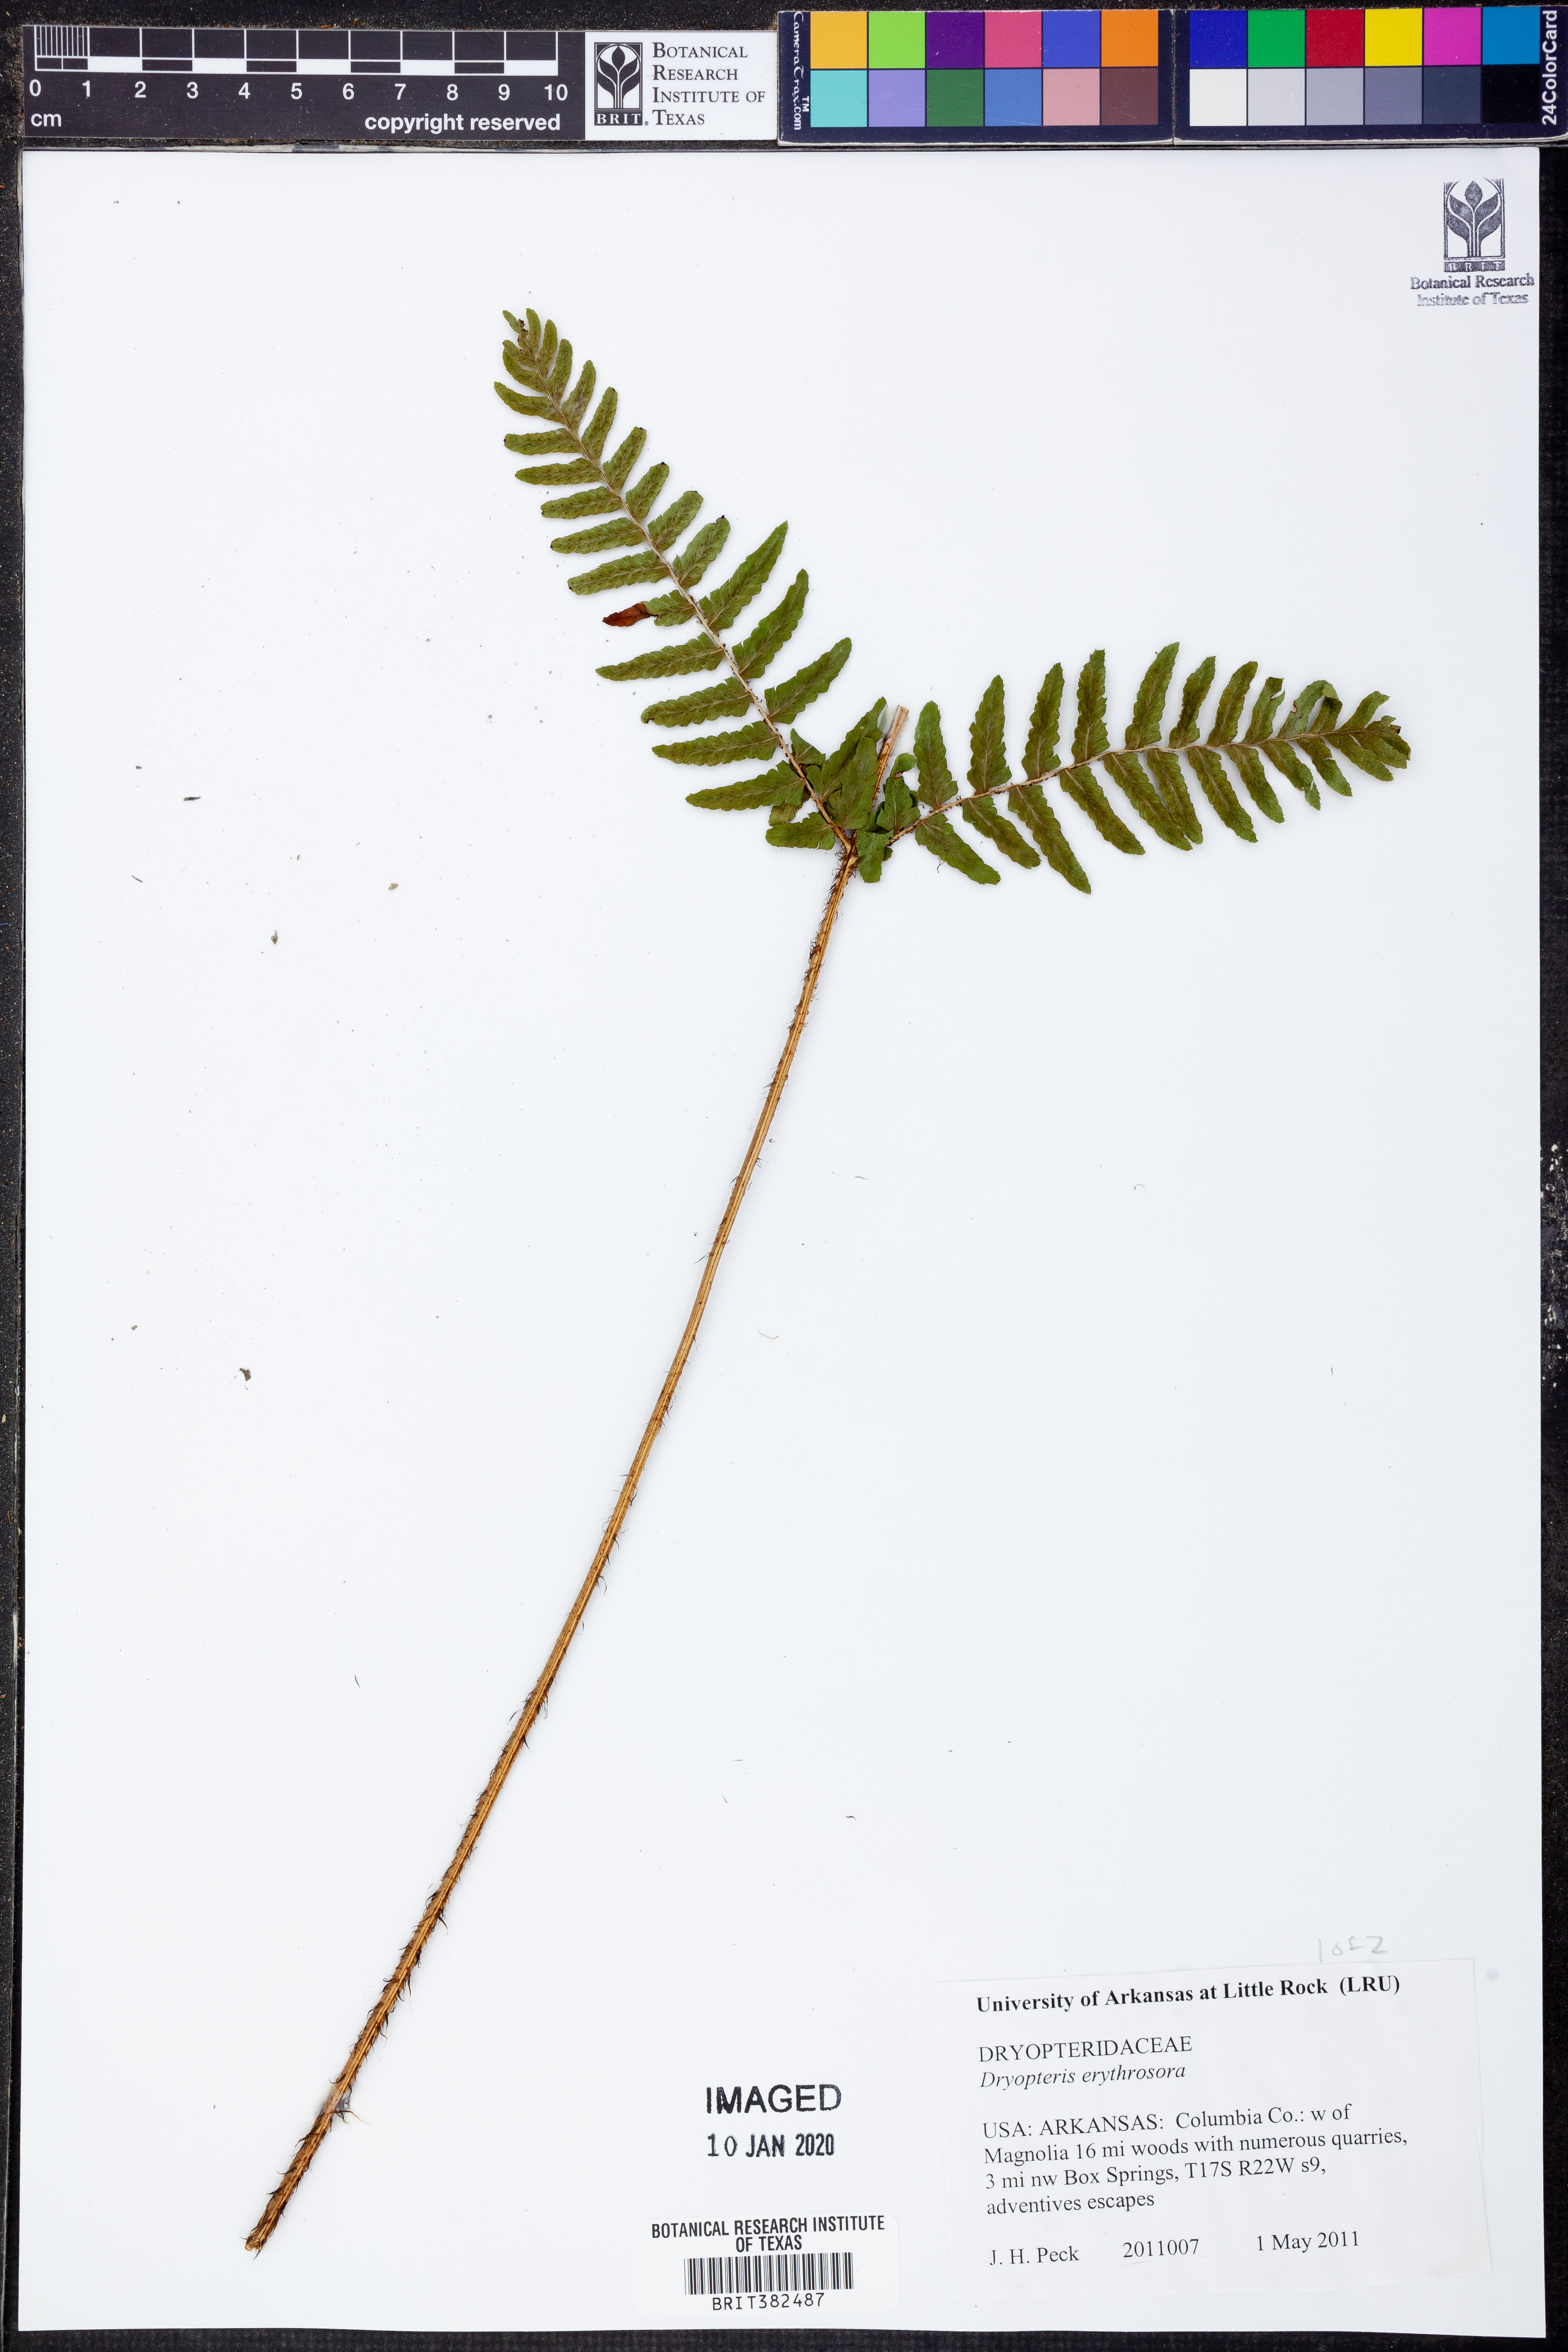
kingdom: Plantae
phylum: Tracheophyta
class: Polypodiopsida
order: Polypodiales
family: Dryopteridaceae
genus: Dryopteris
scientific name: Dryopteris erythrosora
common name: Autumn fern
